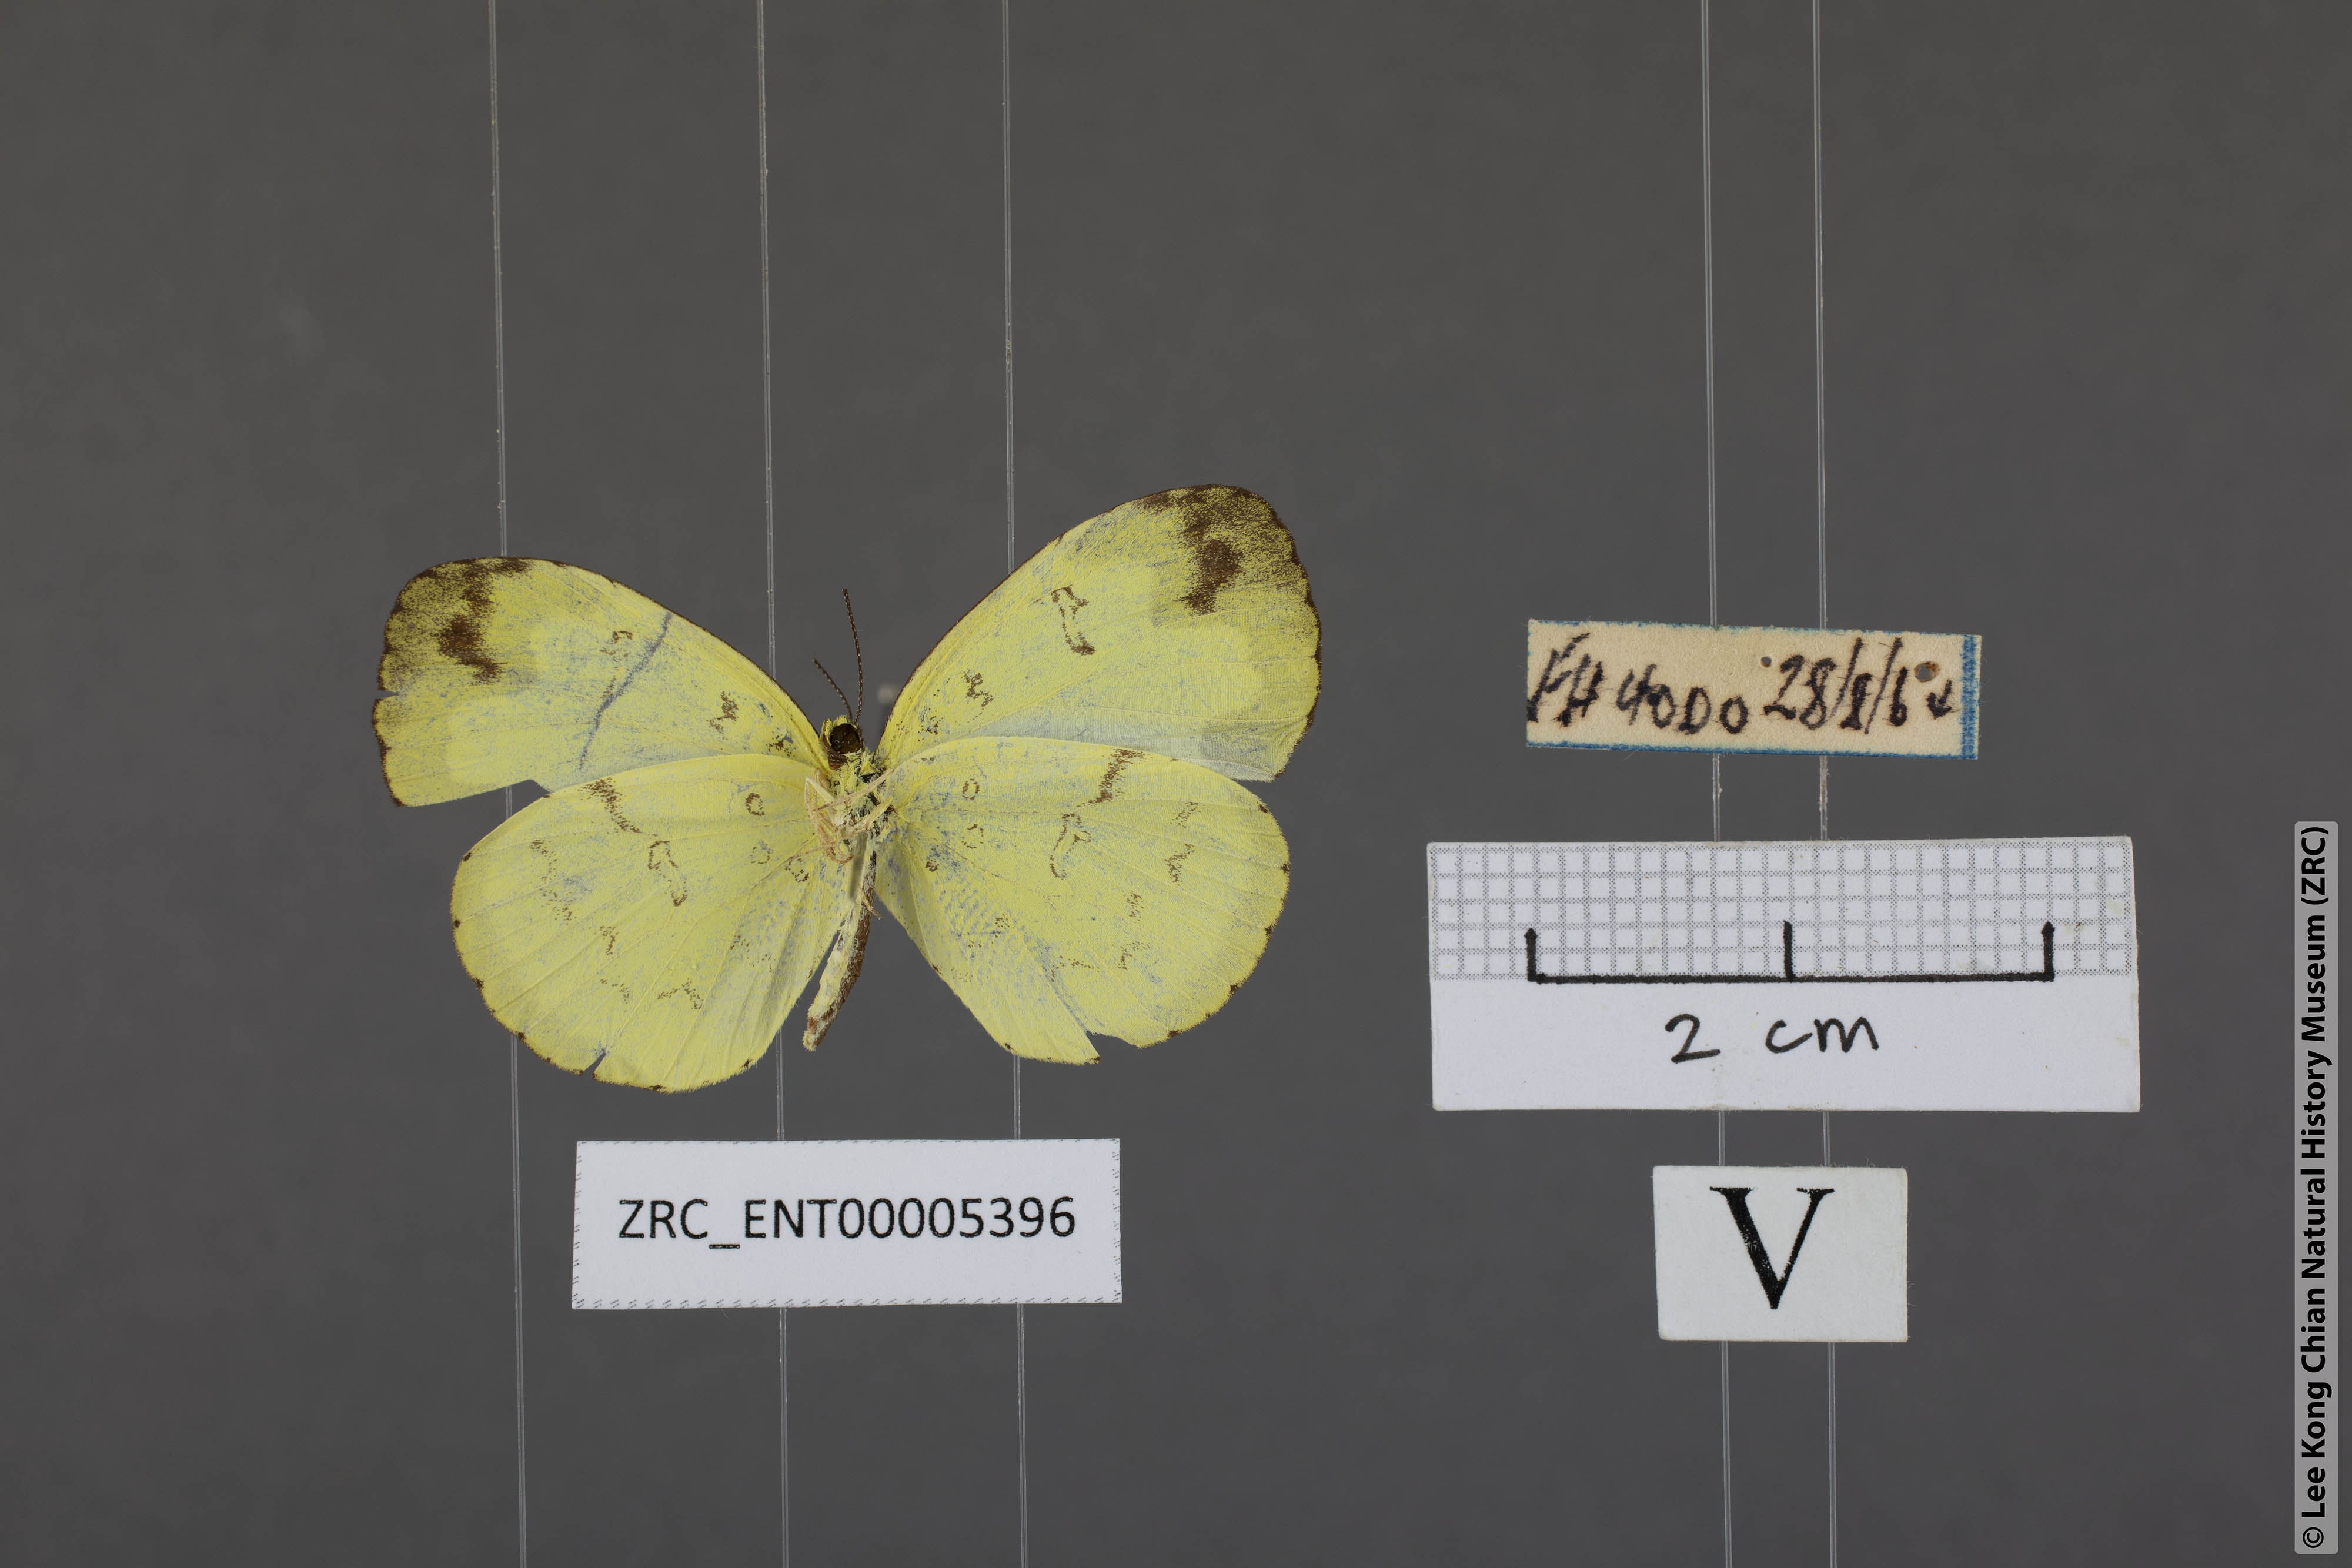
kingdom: Animalia
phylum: Arthropoda
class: Insecta
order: Lepidoptera
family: Pieridae
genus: Eurema
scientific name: Eurema ada
